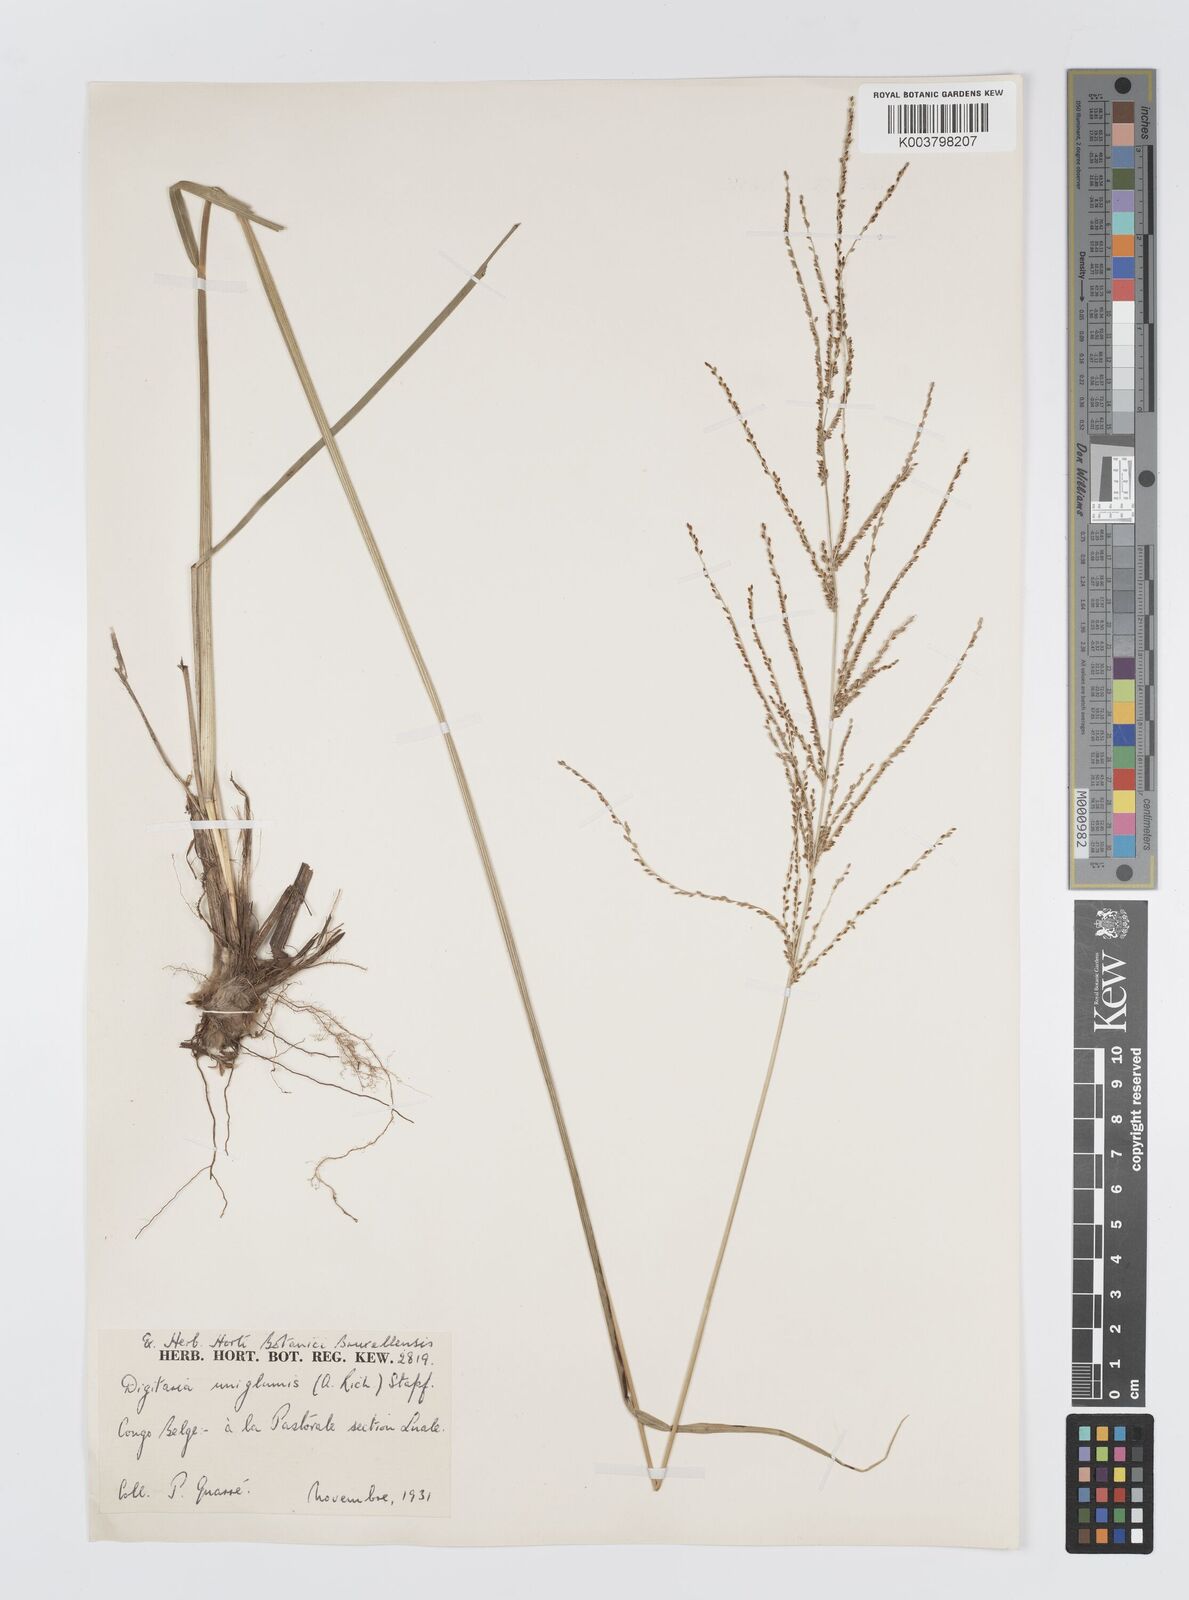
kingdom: Plantae
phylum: Tracheophyta
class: Liliopsida
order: Poales
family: Poaceae
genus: Digitaria
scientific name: Digitaria diagonalis
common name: Brown-seed finger grass
